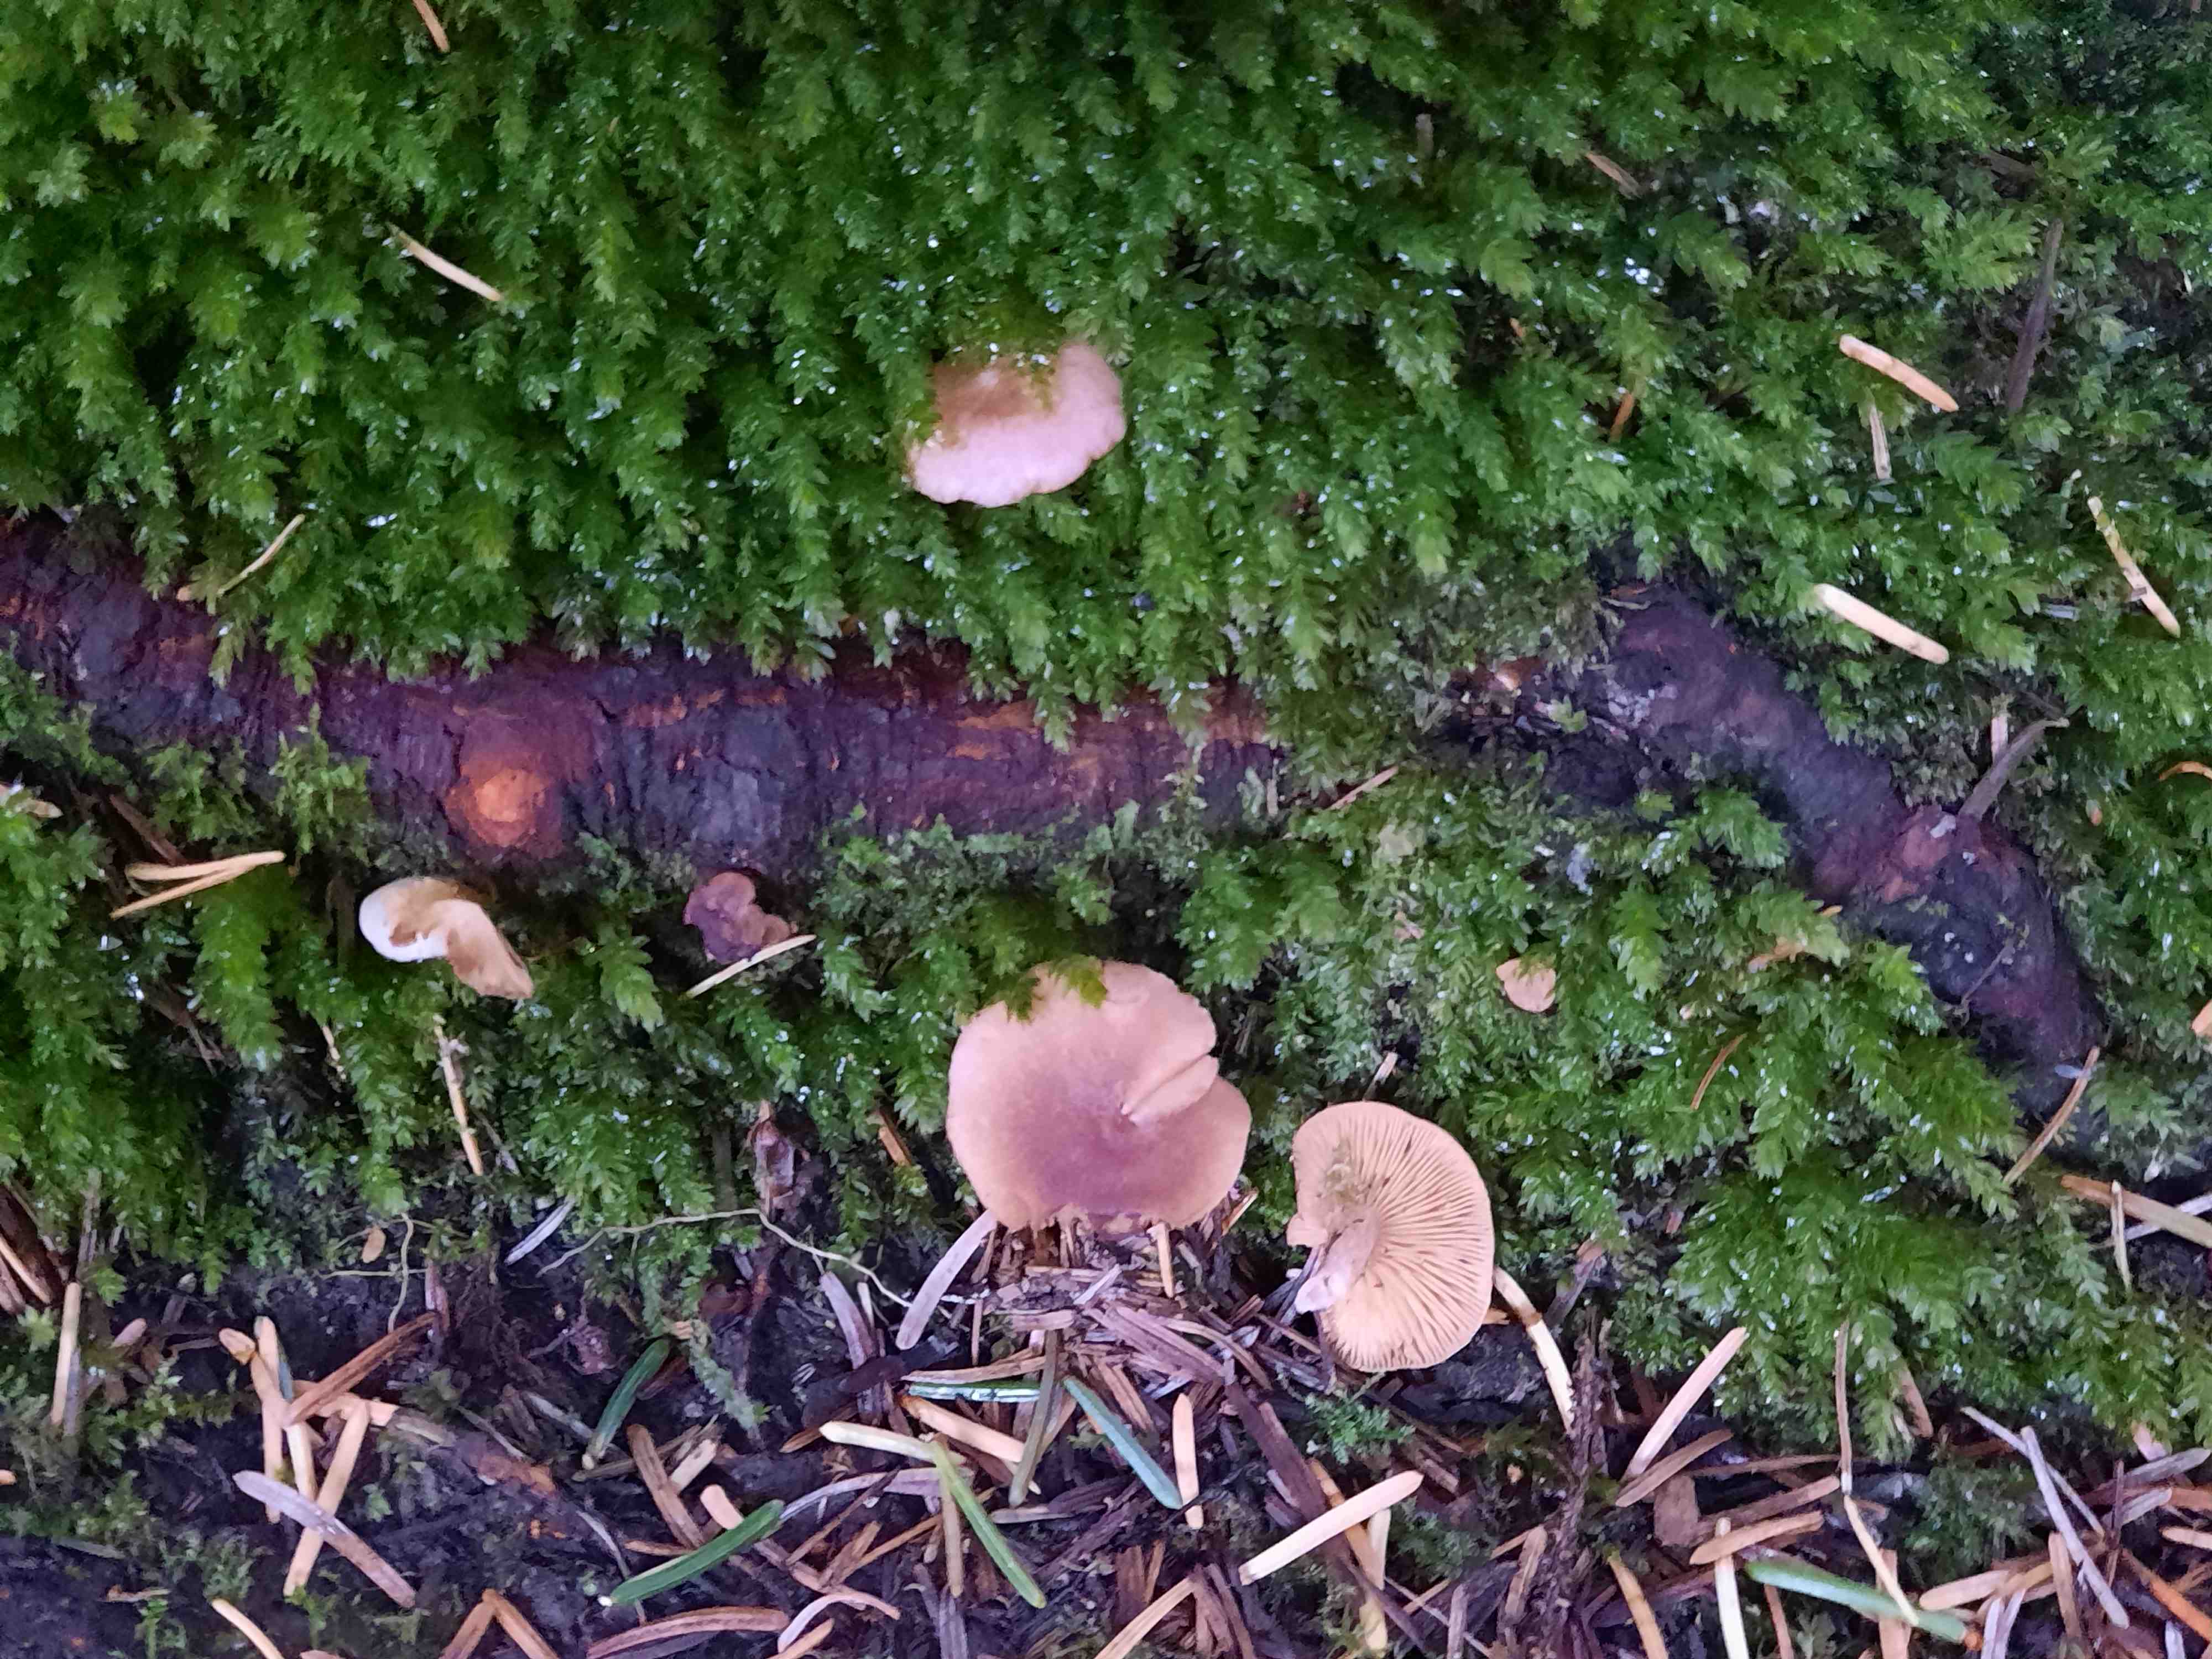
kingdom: Fungi
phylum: Basidiomycota
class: Agaricomycetes
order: Russulales
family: Russulaceae
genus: Lactarius
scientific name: Lactarius
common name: mælkehat
